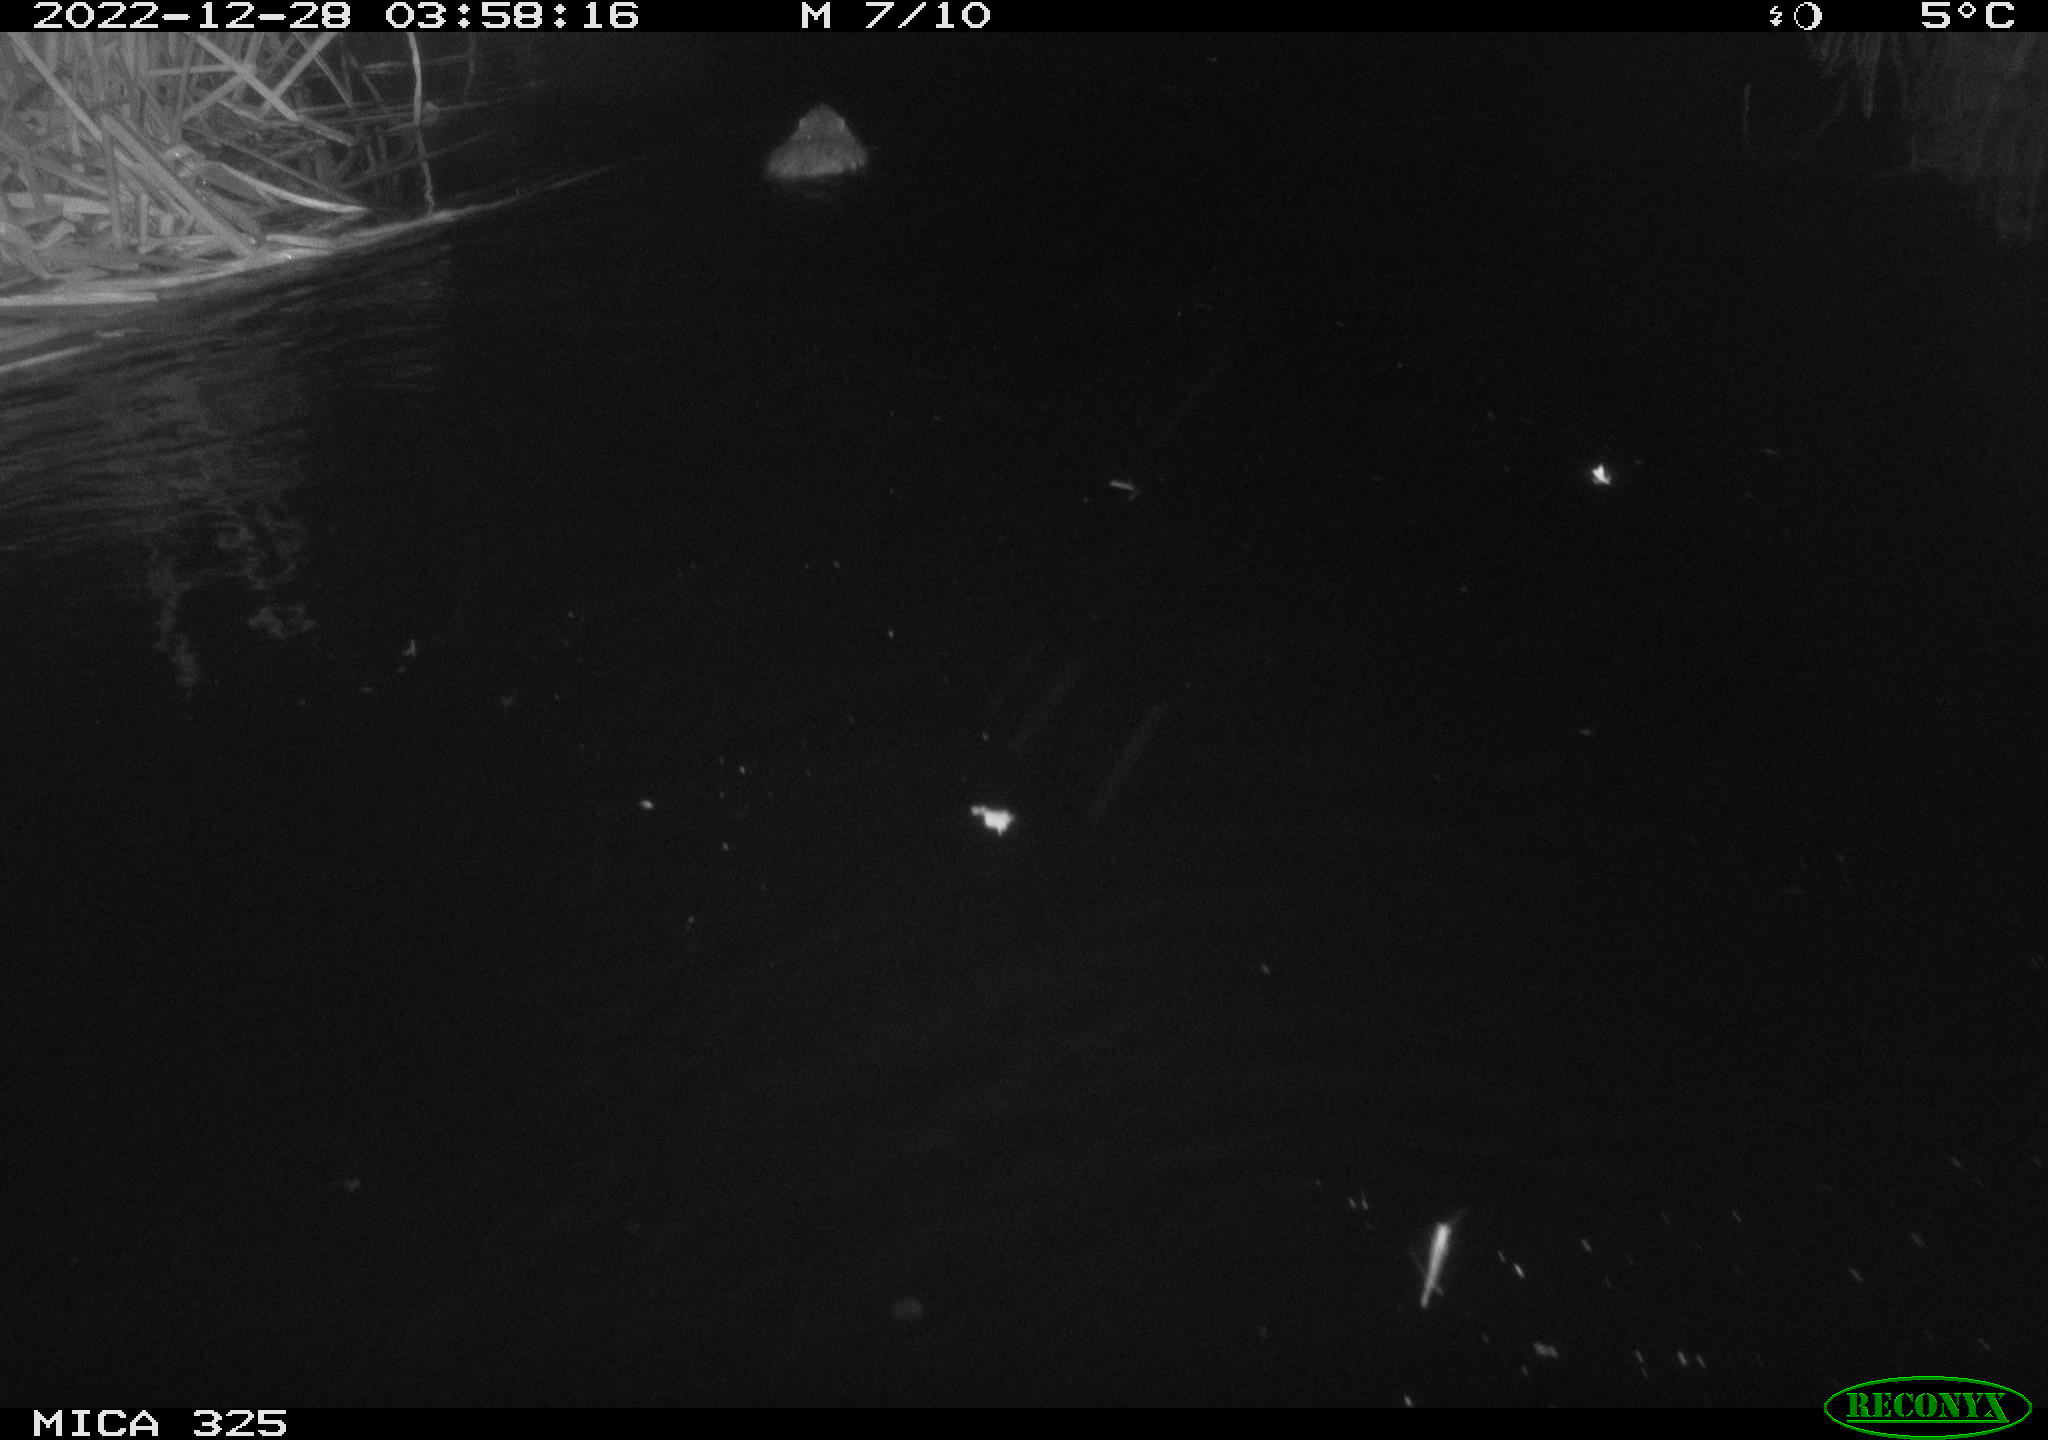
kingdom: Animalia
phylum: Chordata
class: Mammalia
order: Rodentia
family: Myocastoridae
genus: Myocastor
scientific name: Myocastor coypus
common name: Coypu
